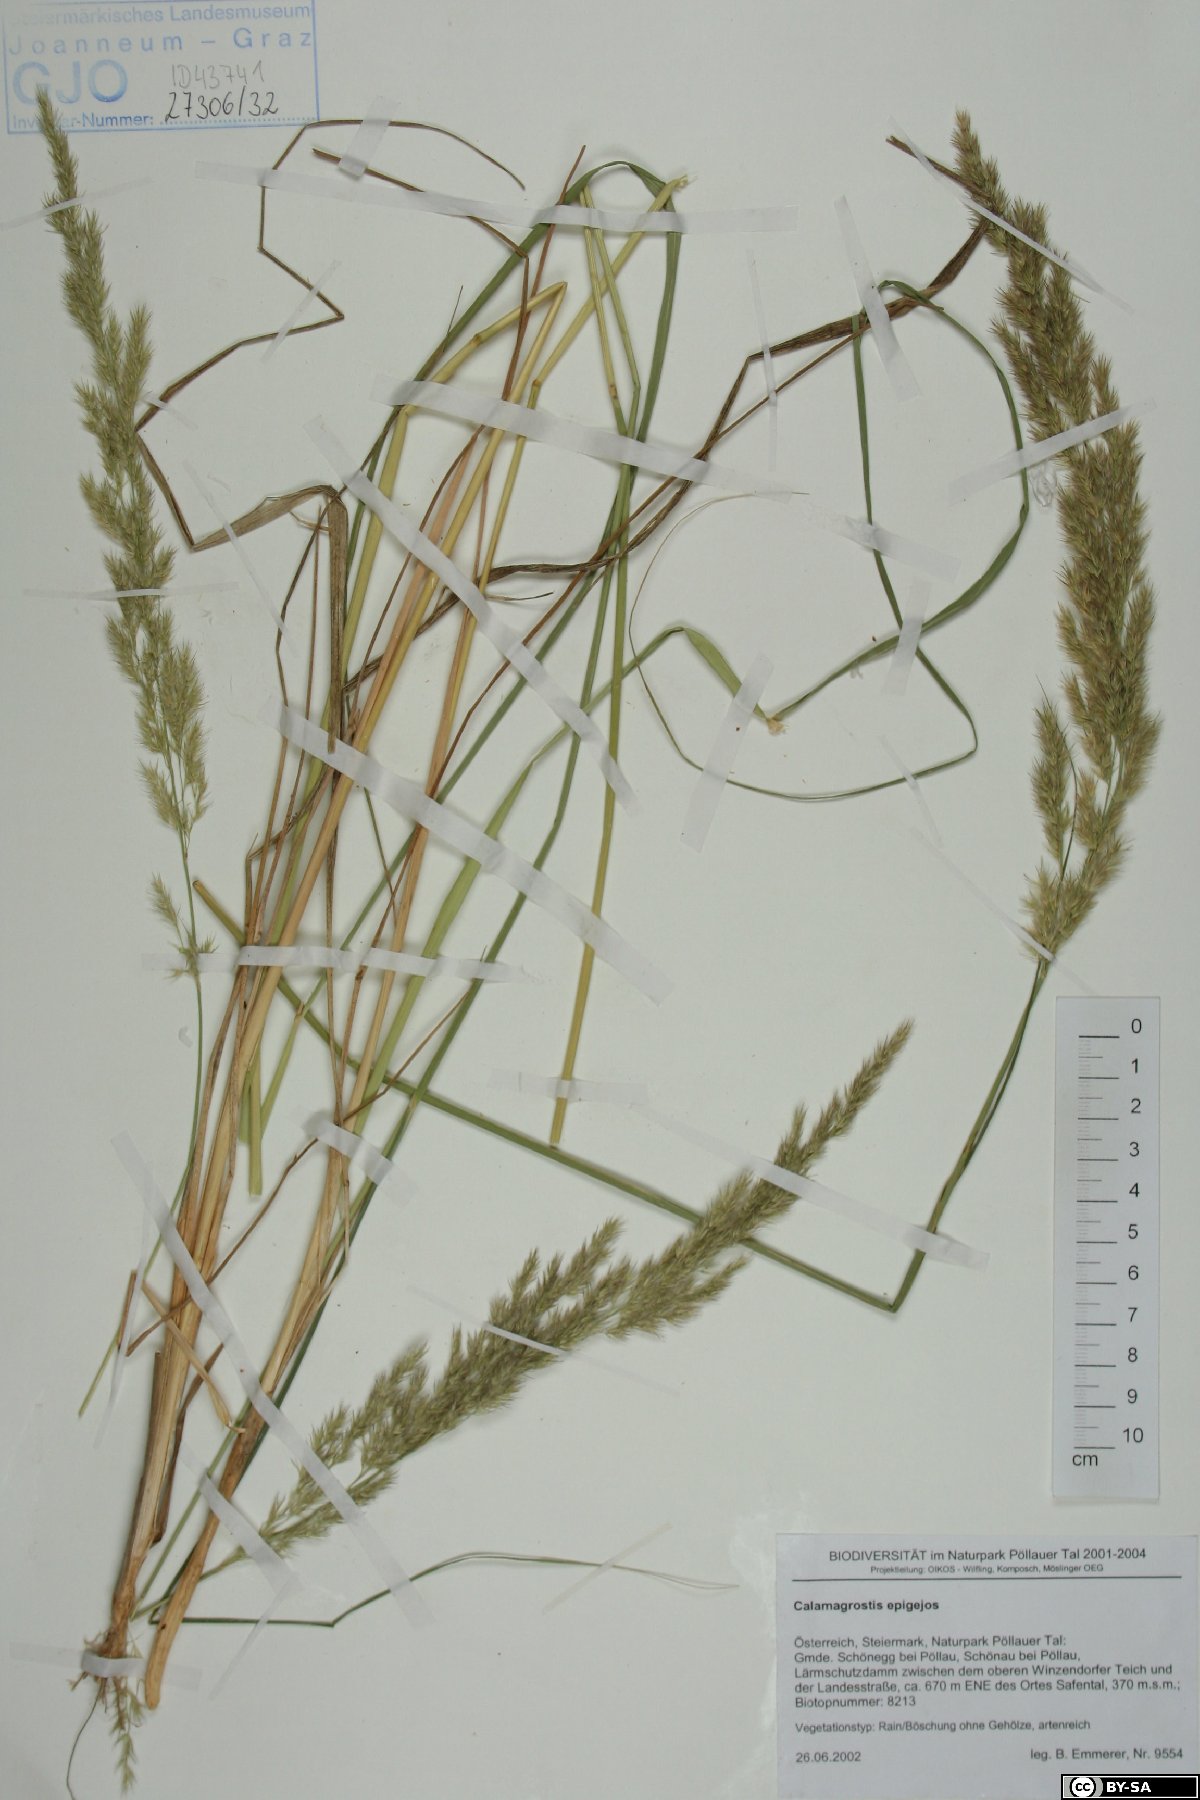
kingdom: Plantae
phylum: Tracheophyta
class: Liliopsida
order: Poales
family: Poaceae
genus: Calamagrostis
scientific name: Calamagrostis epigejos
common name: Wood small-reed
